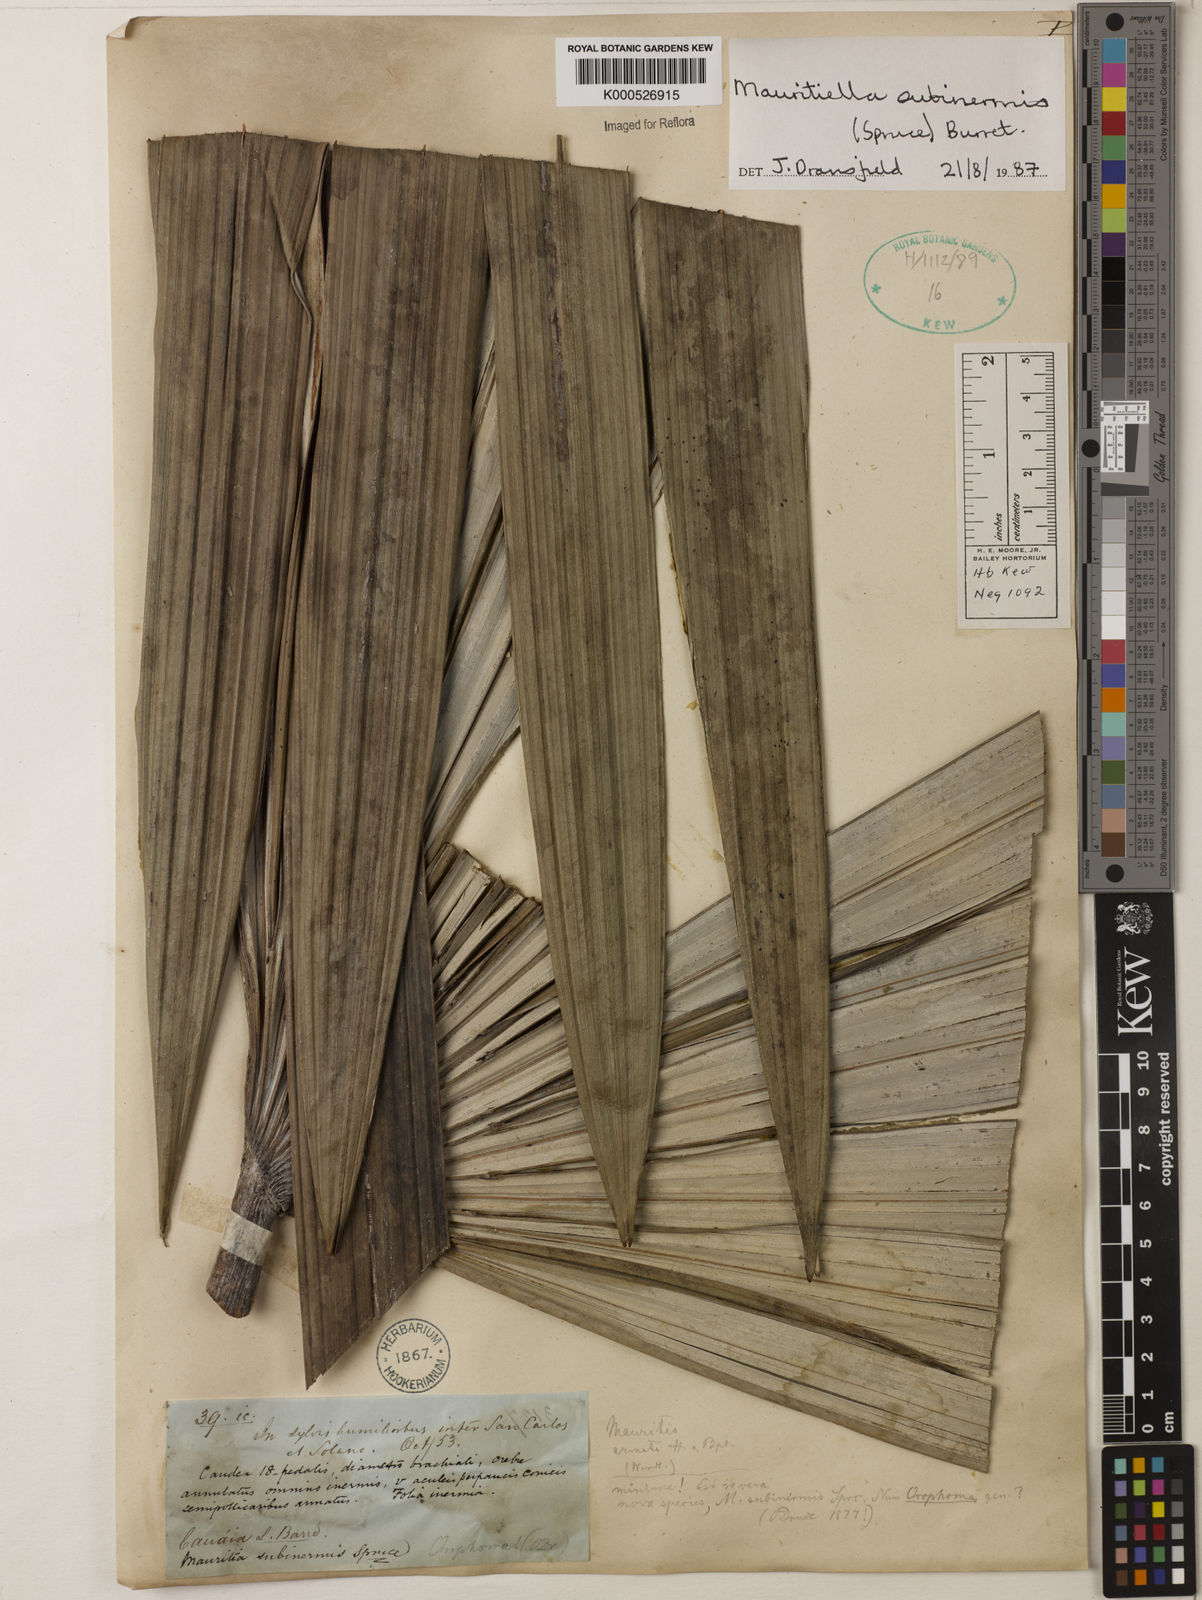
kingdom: Plantae
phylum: Tracheophyta
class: Liliopsida
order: Arecales
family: Arecaceae
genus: Mauritiella
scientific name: Mauritiella pumila
